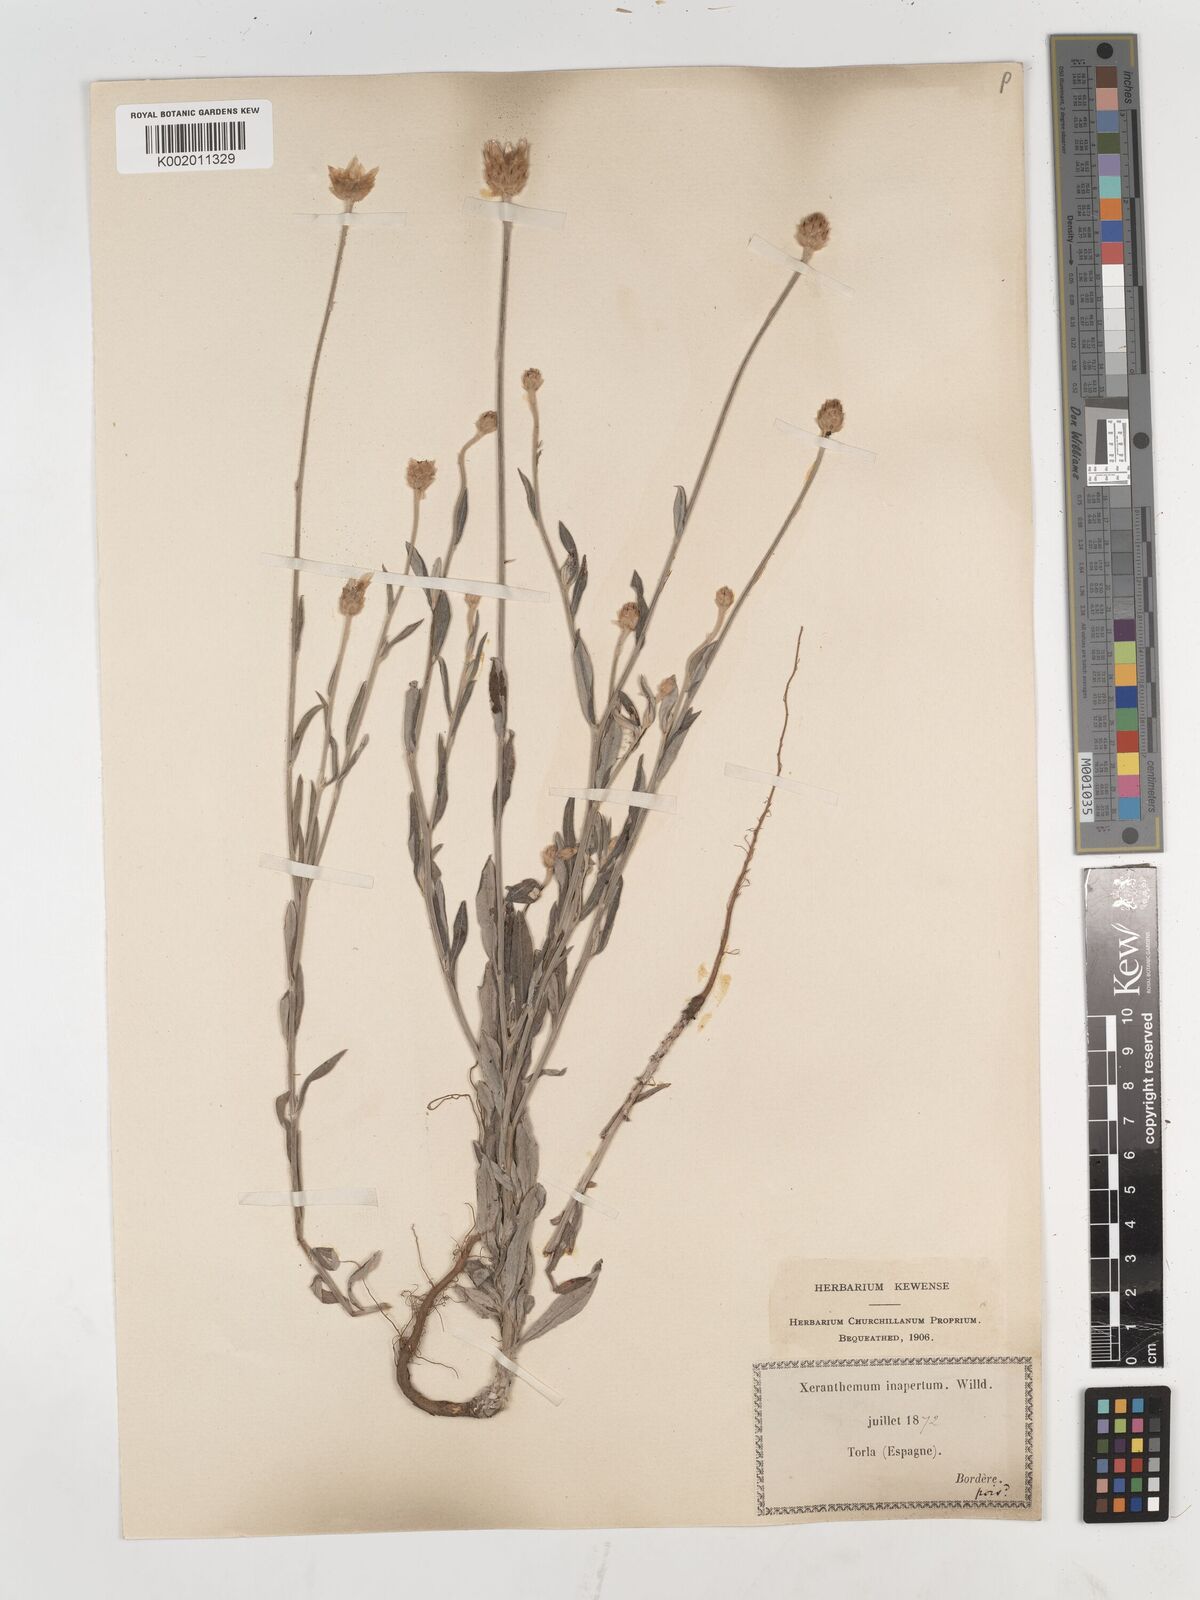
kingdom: Plantae
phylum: Tracheophyta
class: Magnoliopsida
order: Asterales
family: Asteraceae
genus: Xeranthemum
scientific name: Xeranthemum inapertum
